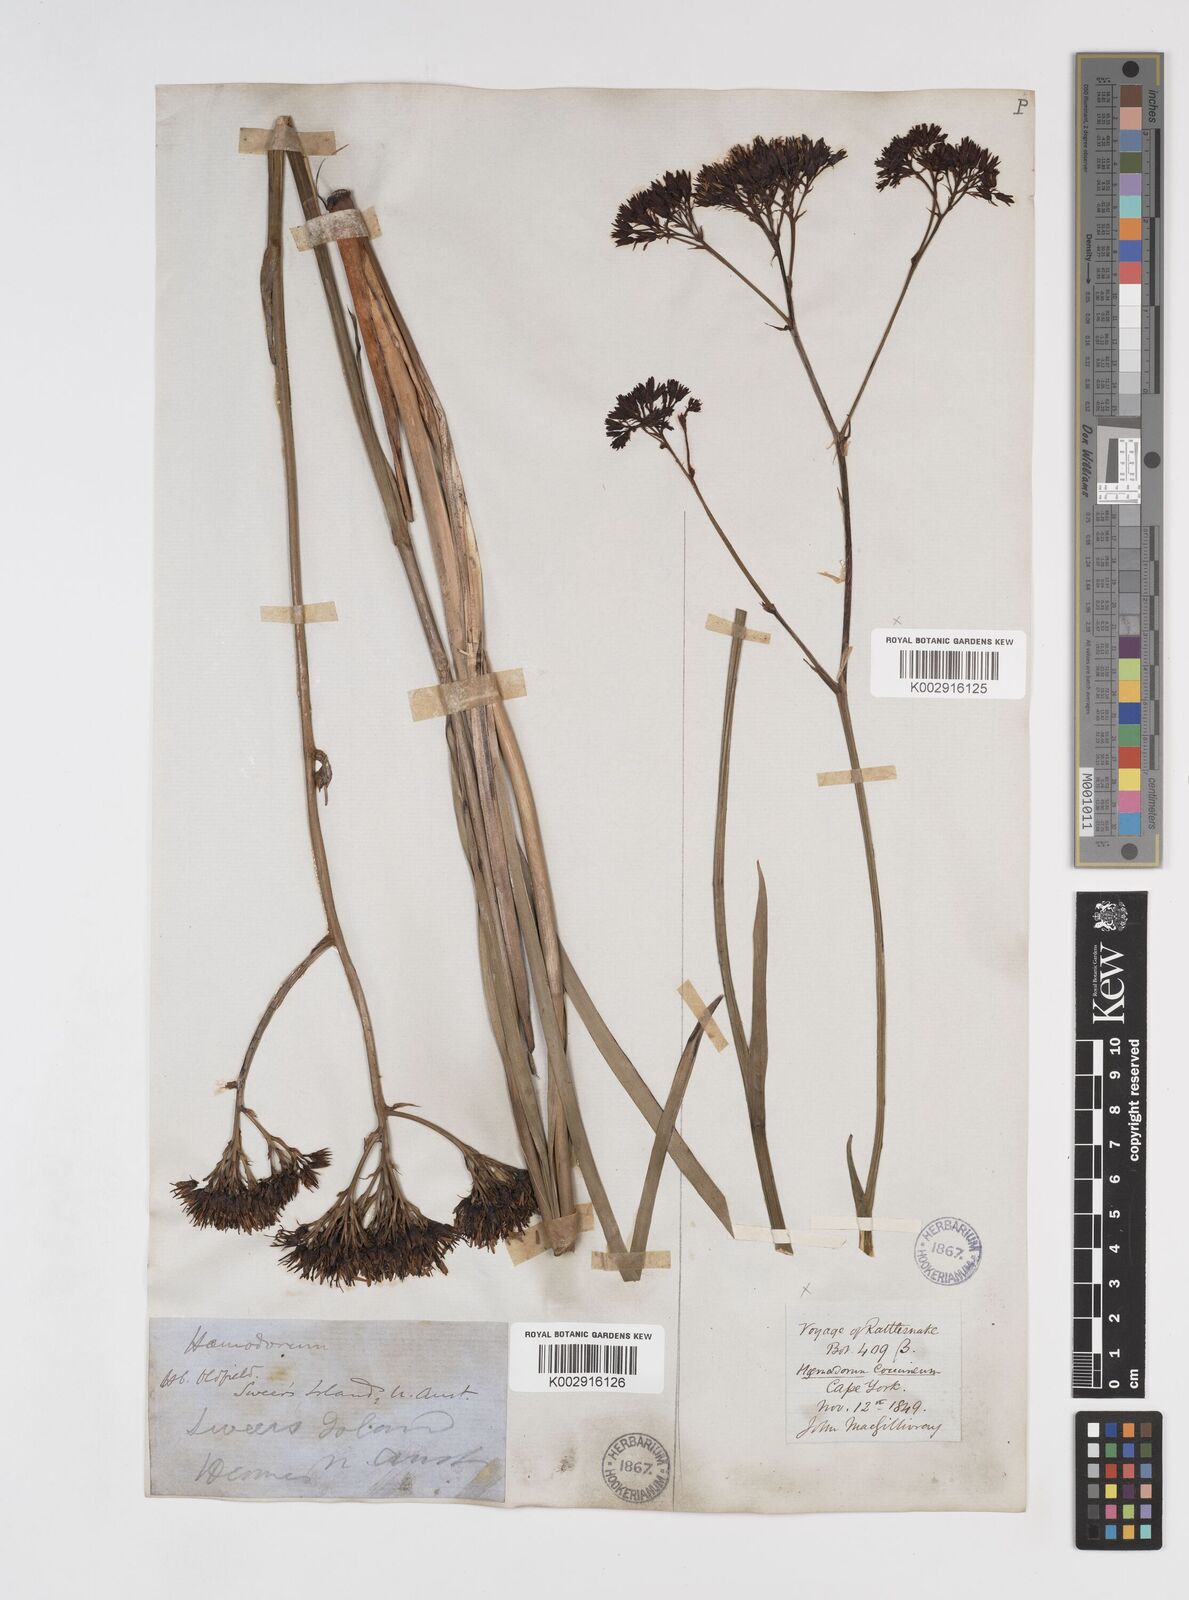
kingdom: Plantae
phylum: Tracheophyta
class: Liliopsida
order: Commelinales
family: Haemodoraceae
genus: Haemodorum
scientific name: Haemodorum coccineum
